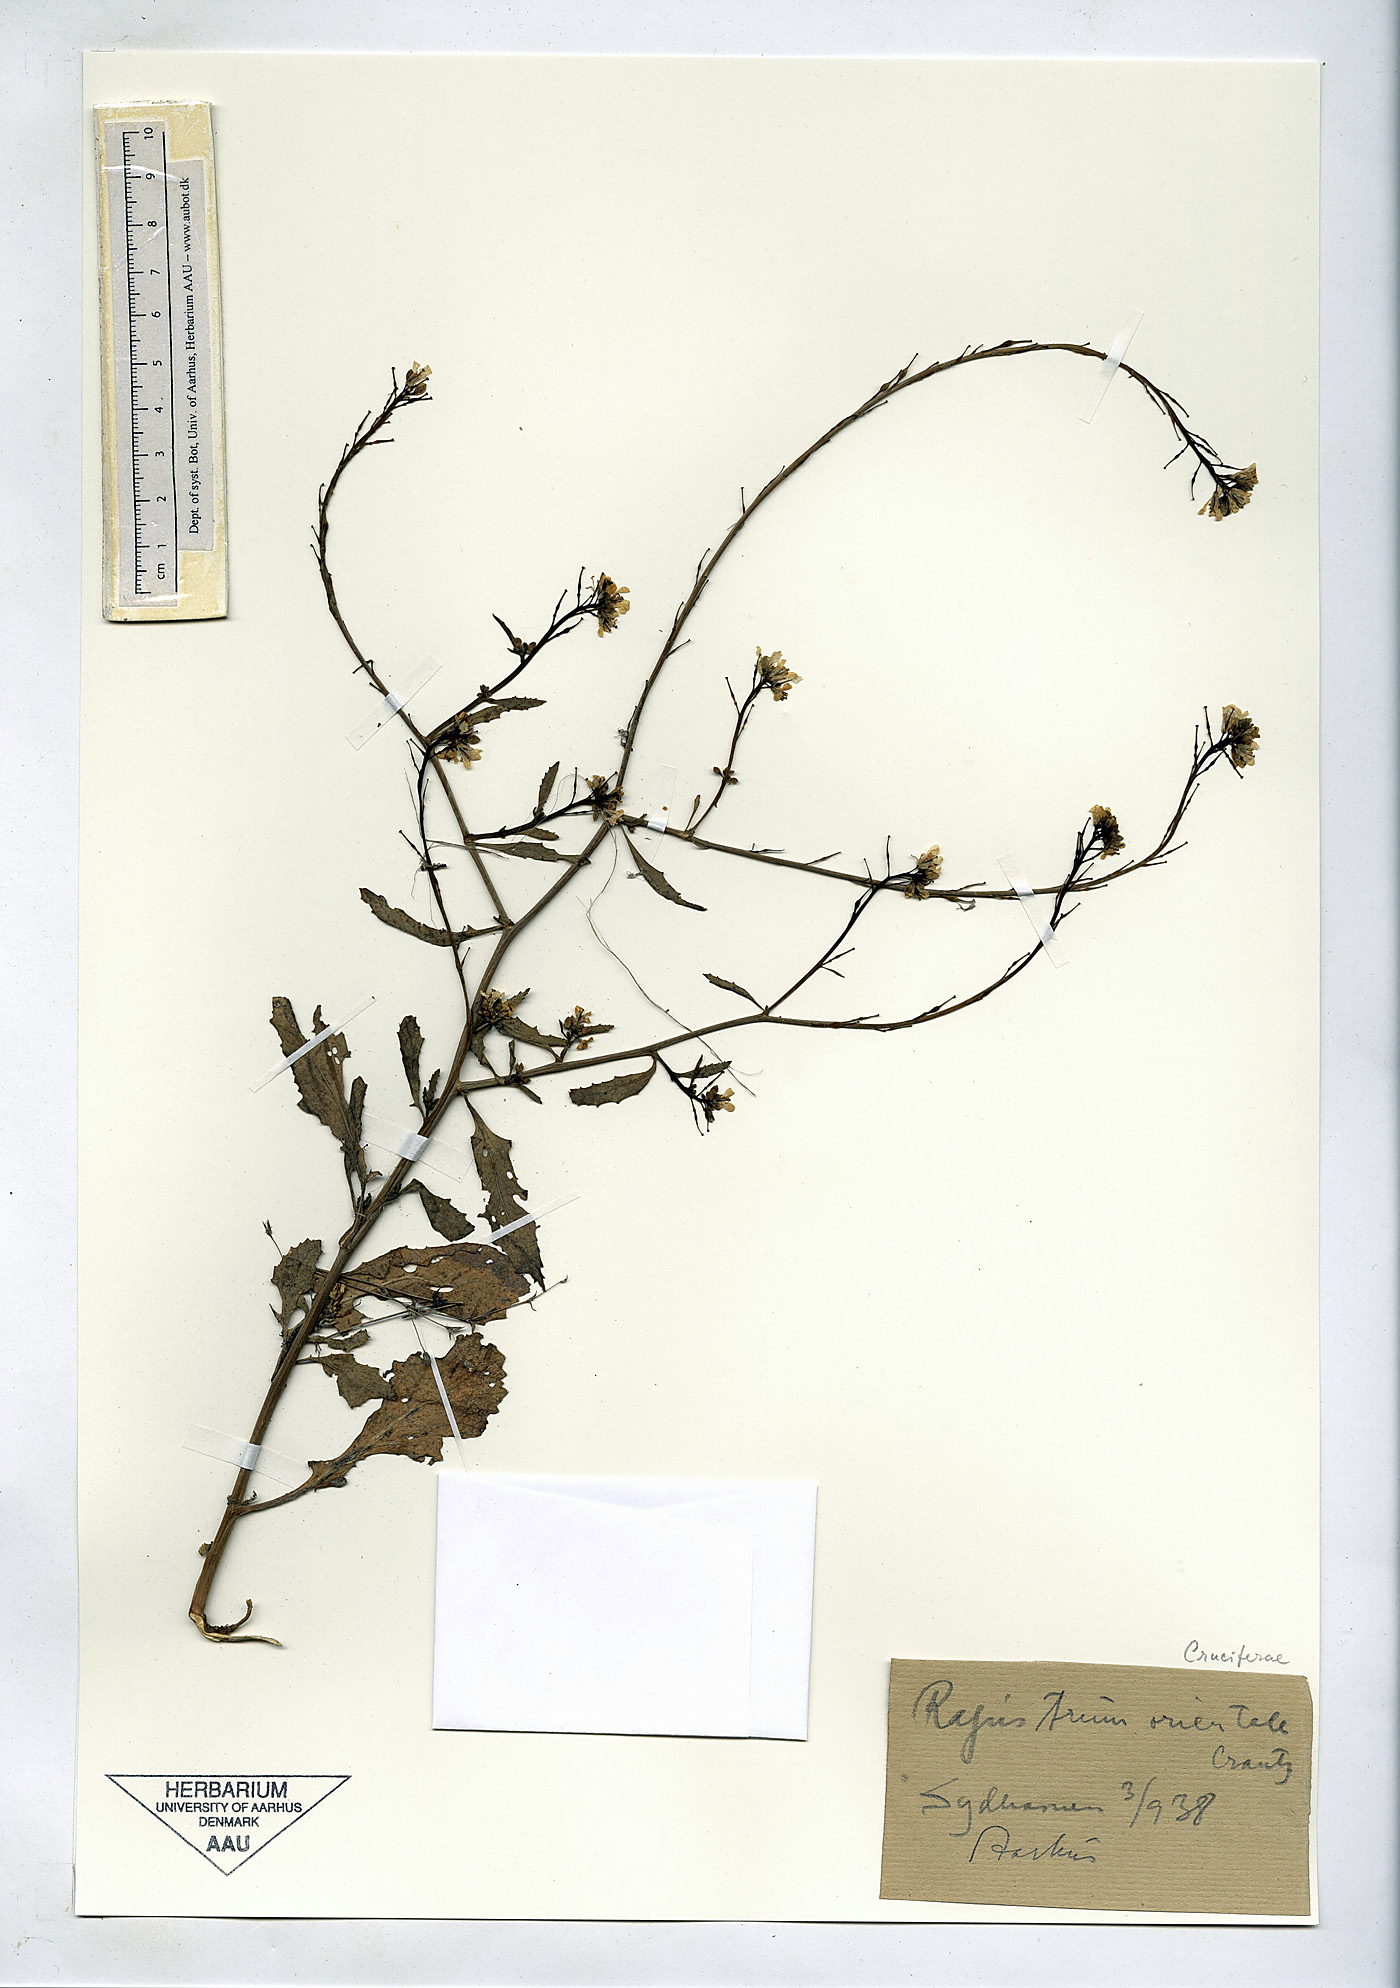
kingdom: Plantae
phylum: Tracheophyta
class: Magnoliopsida
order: Brassicales
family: Brassicaceae
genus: Rapistrum
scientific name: Rapistrum rugosum
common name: Annual bastardcabbage
